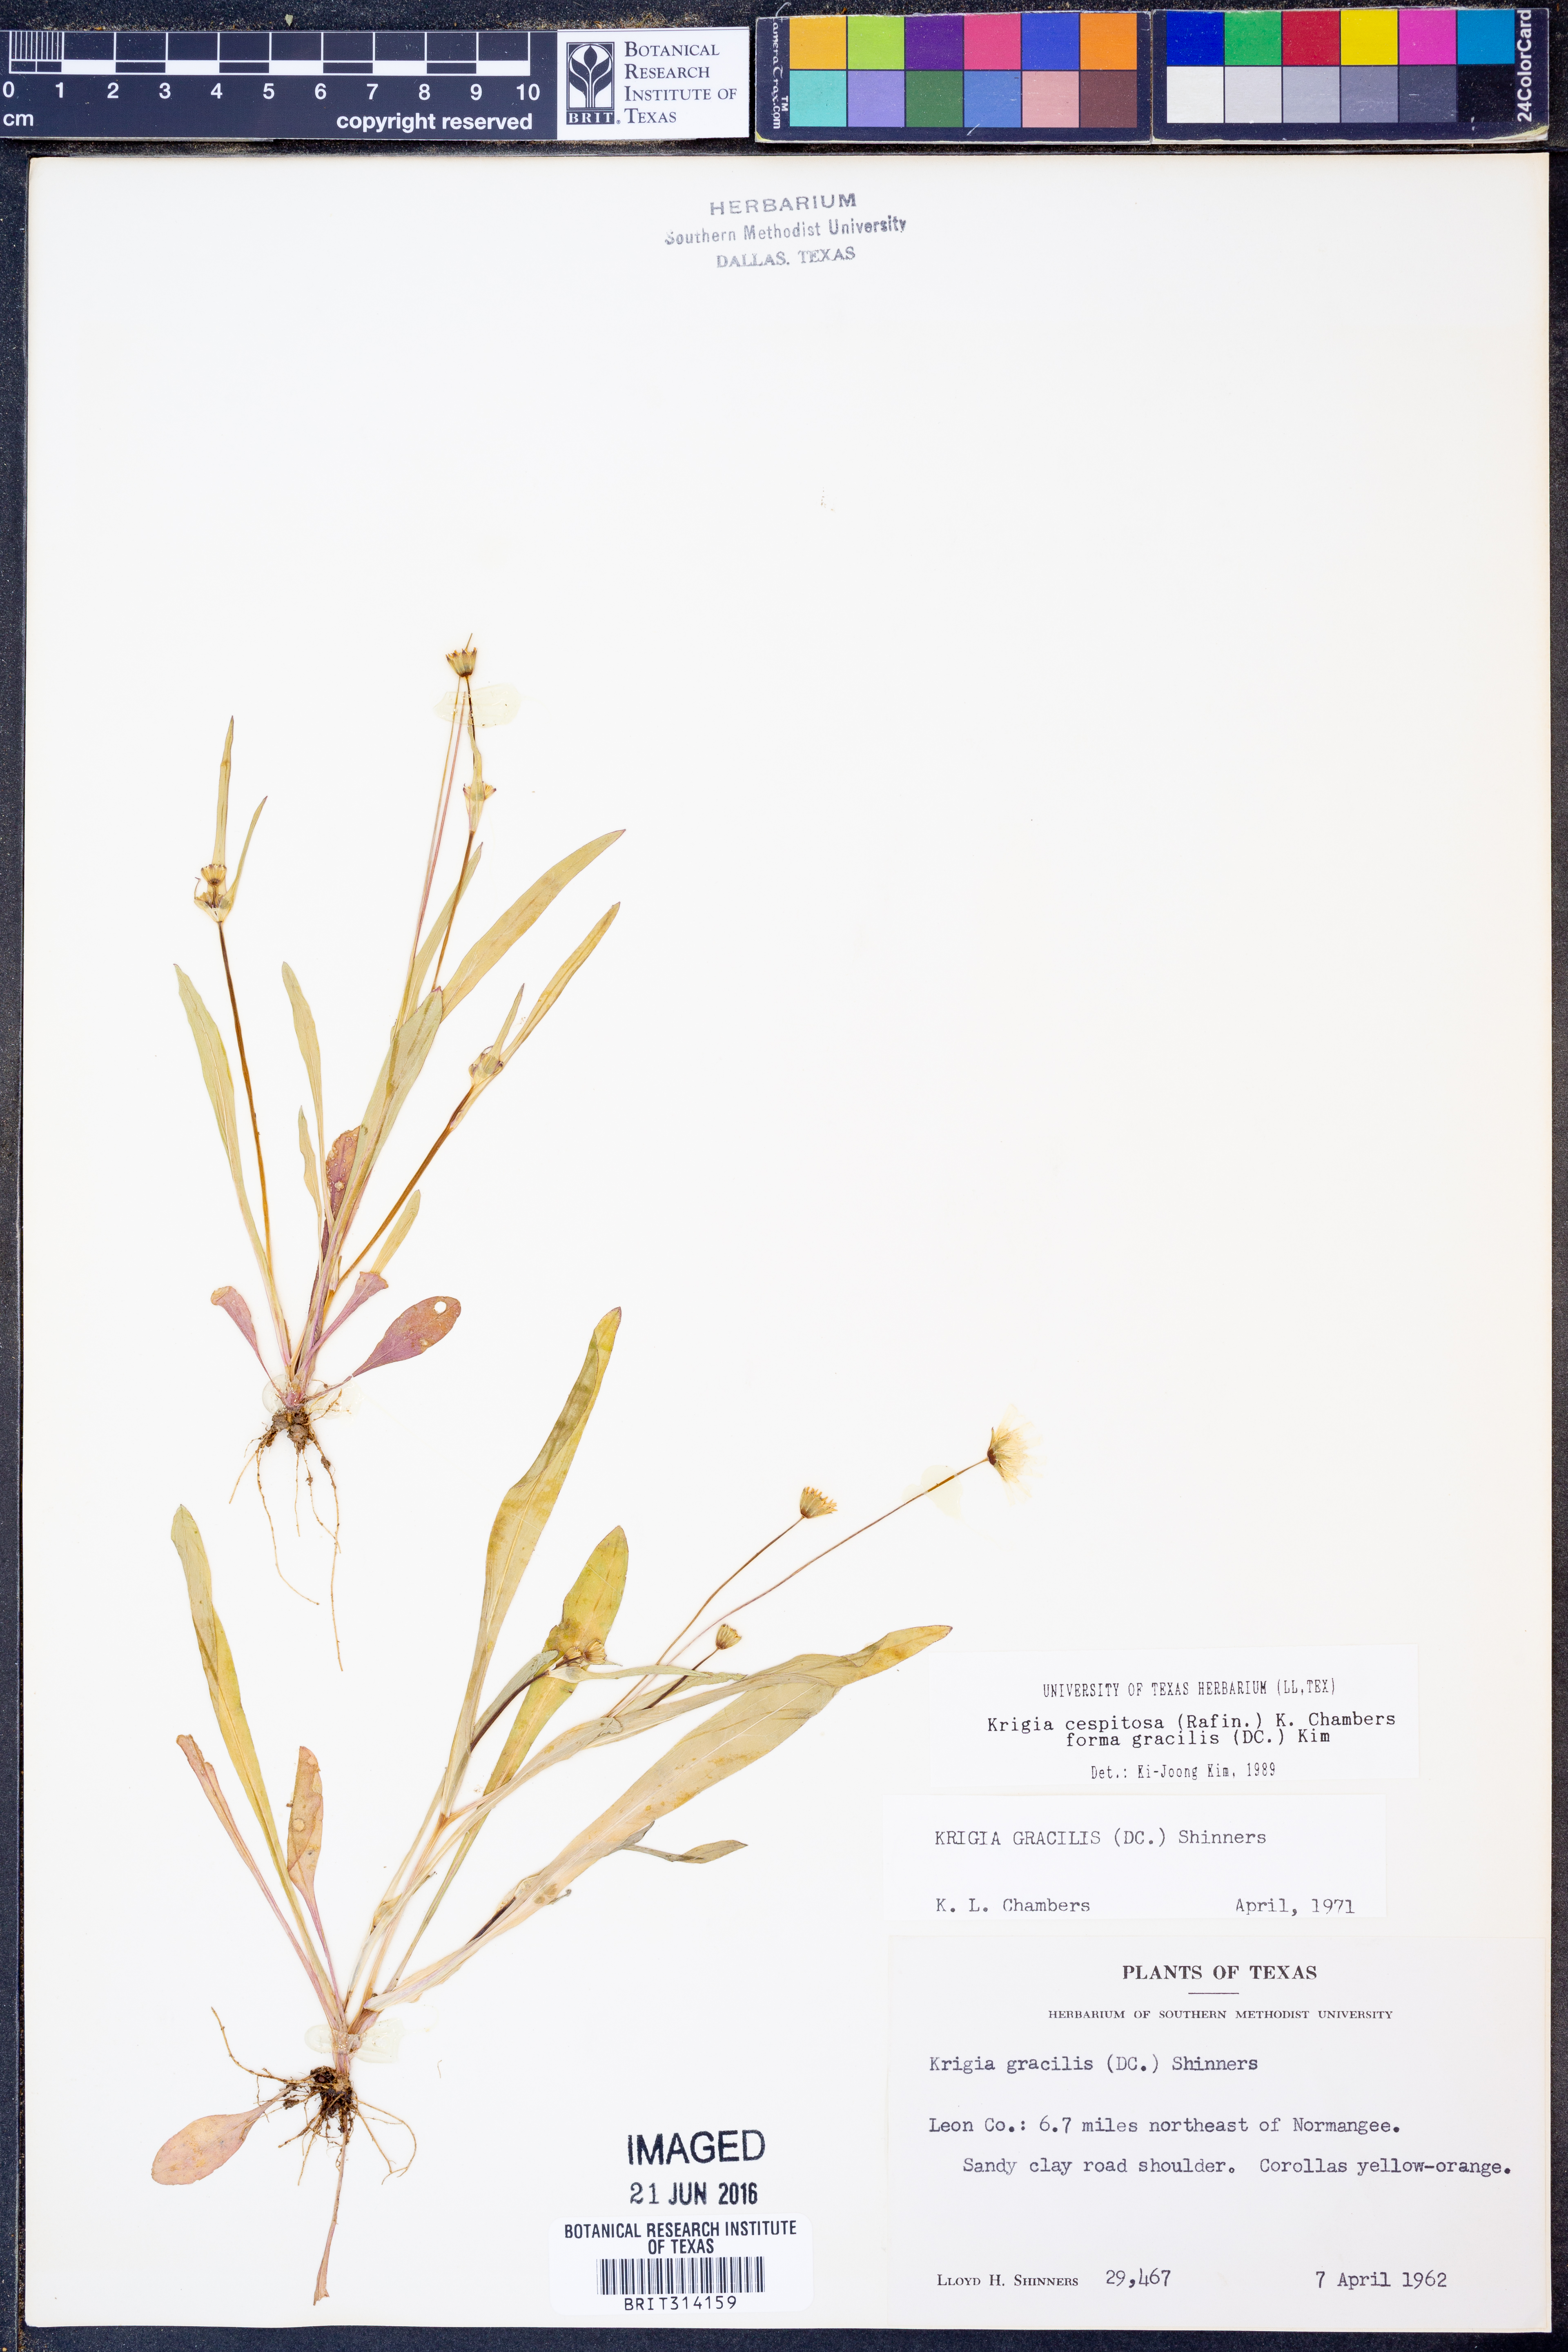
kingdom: Plantae
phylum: Tracheophyta
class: Magnoliopsida
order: Asterales
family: Asteraceae
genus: Krigia
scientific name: Krigia cespitosa
